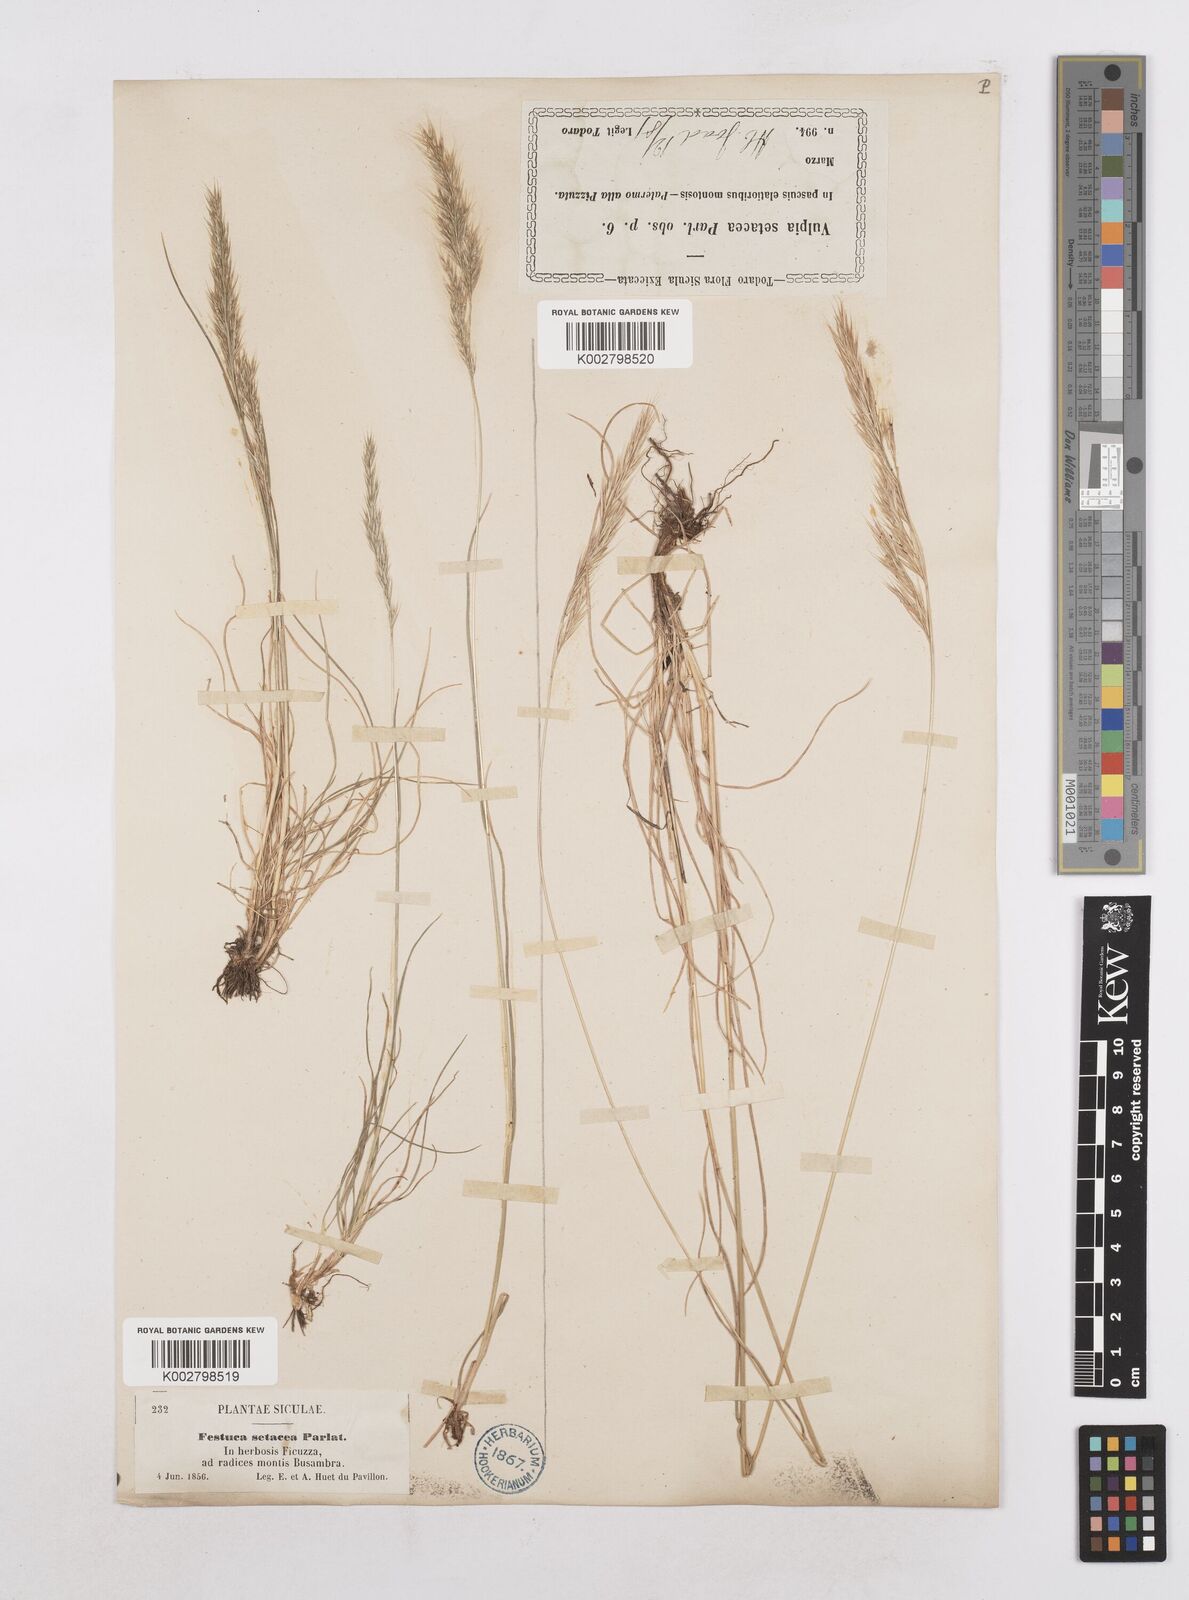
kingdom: Plantae
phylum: Tracheophyta
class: Liliopsida
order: Poales
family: Poaceae
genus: Festuca
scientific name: Festuca sicula
